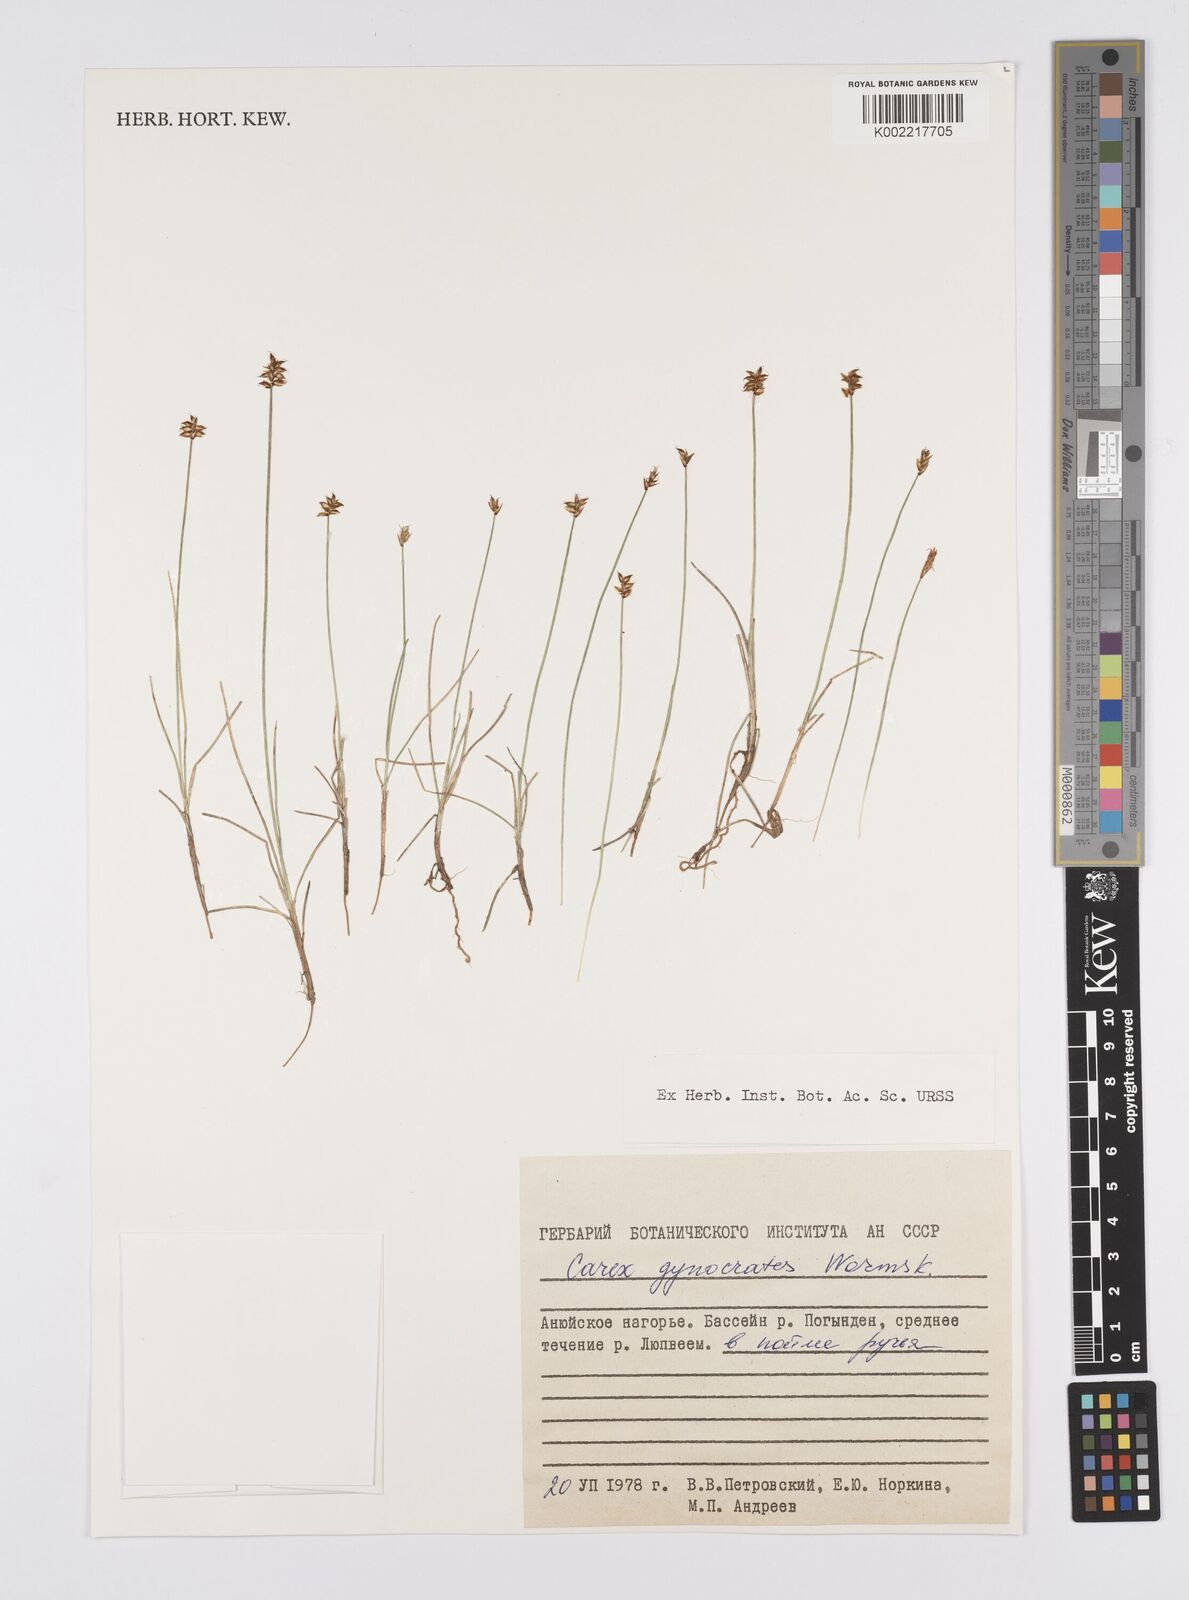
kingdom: Plantae
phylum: Tracheophyta
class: Liliopsida
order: Poales
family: Cyperaceae
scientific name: Cyperaceae
